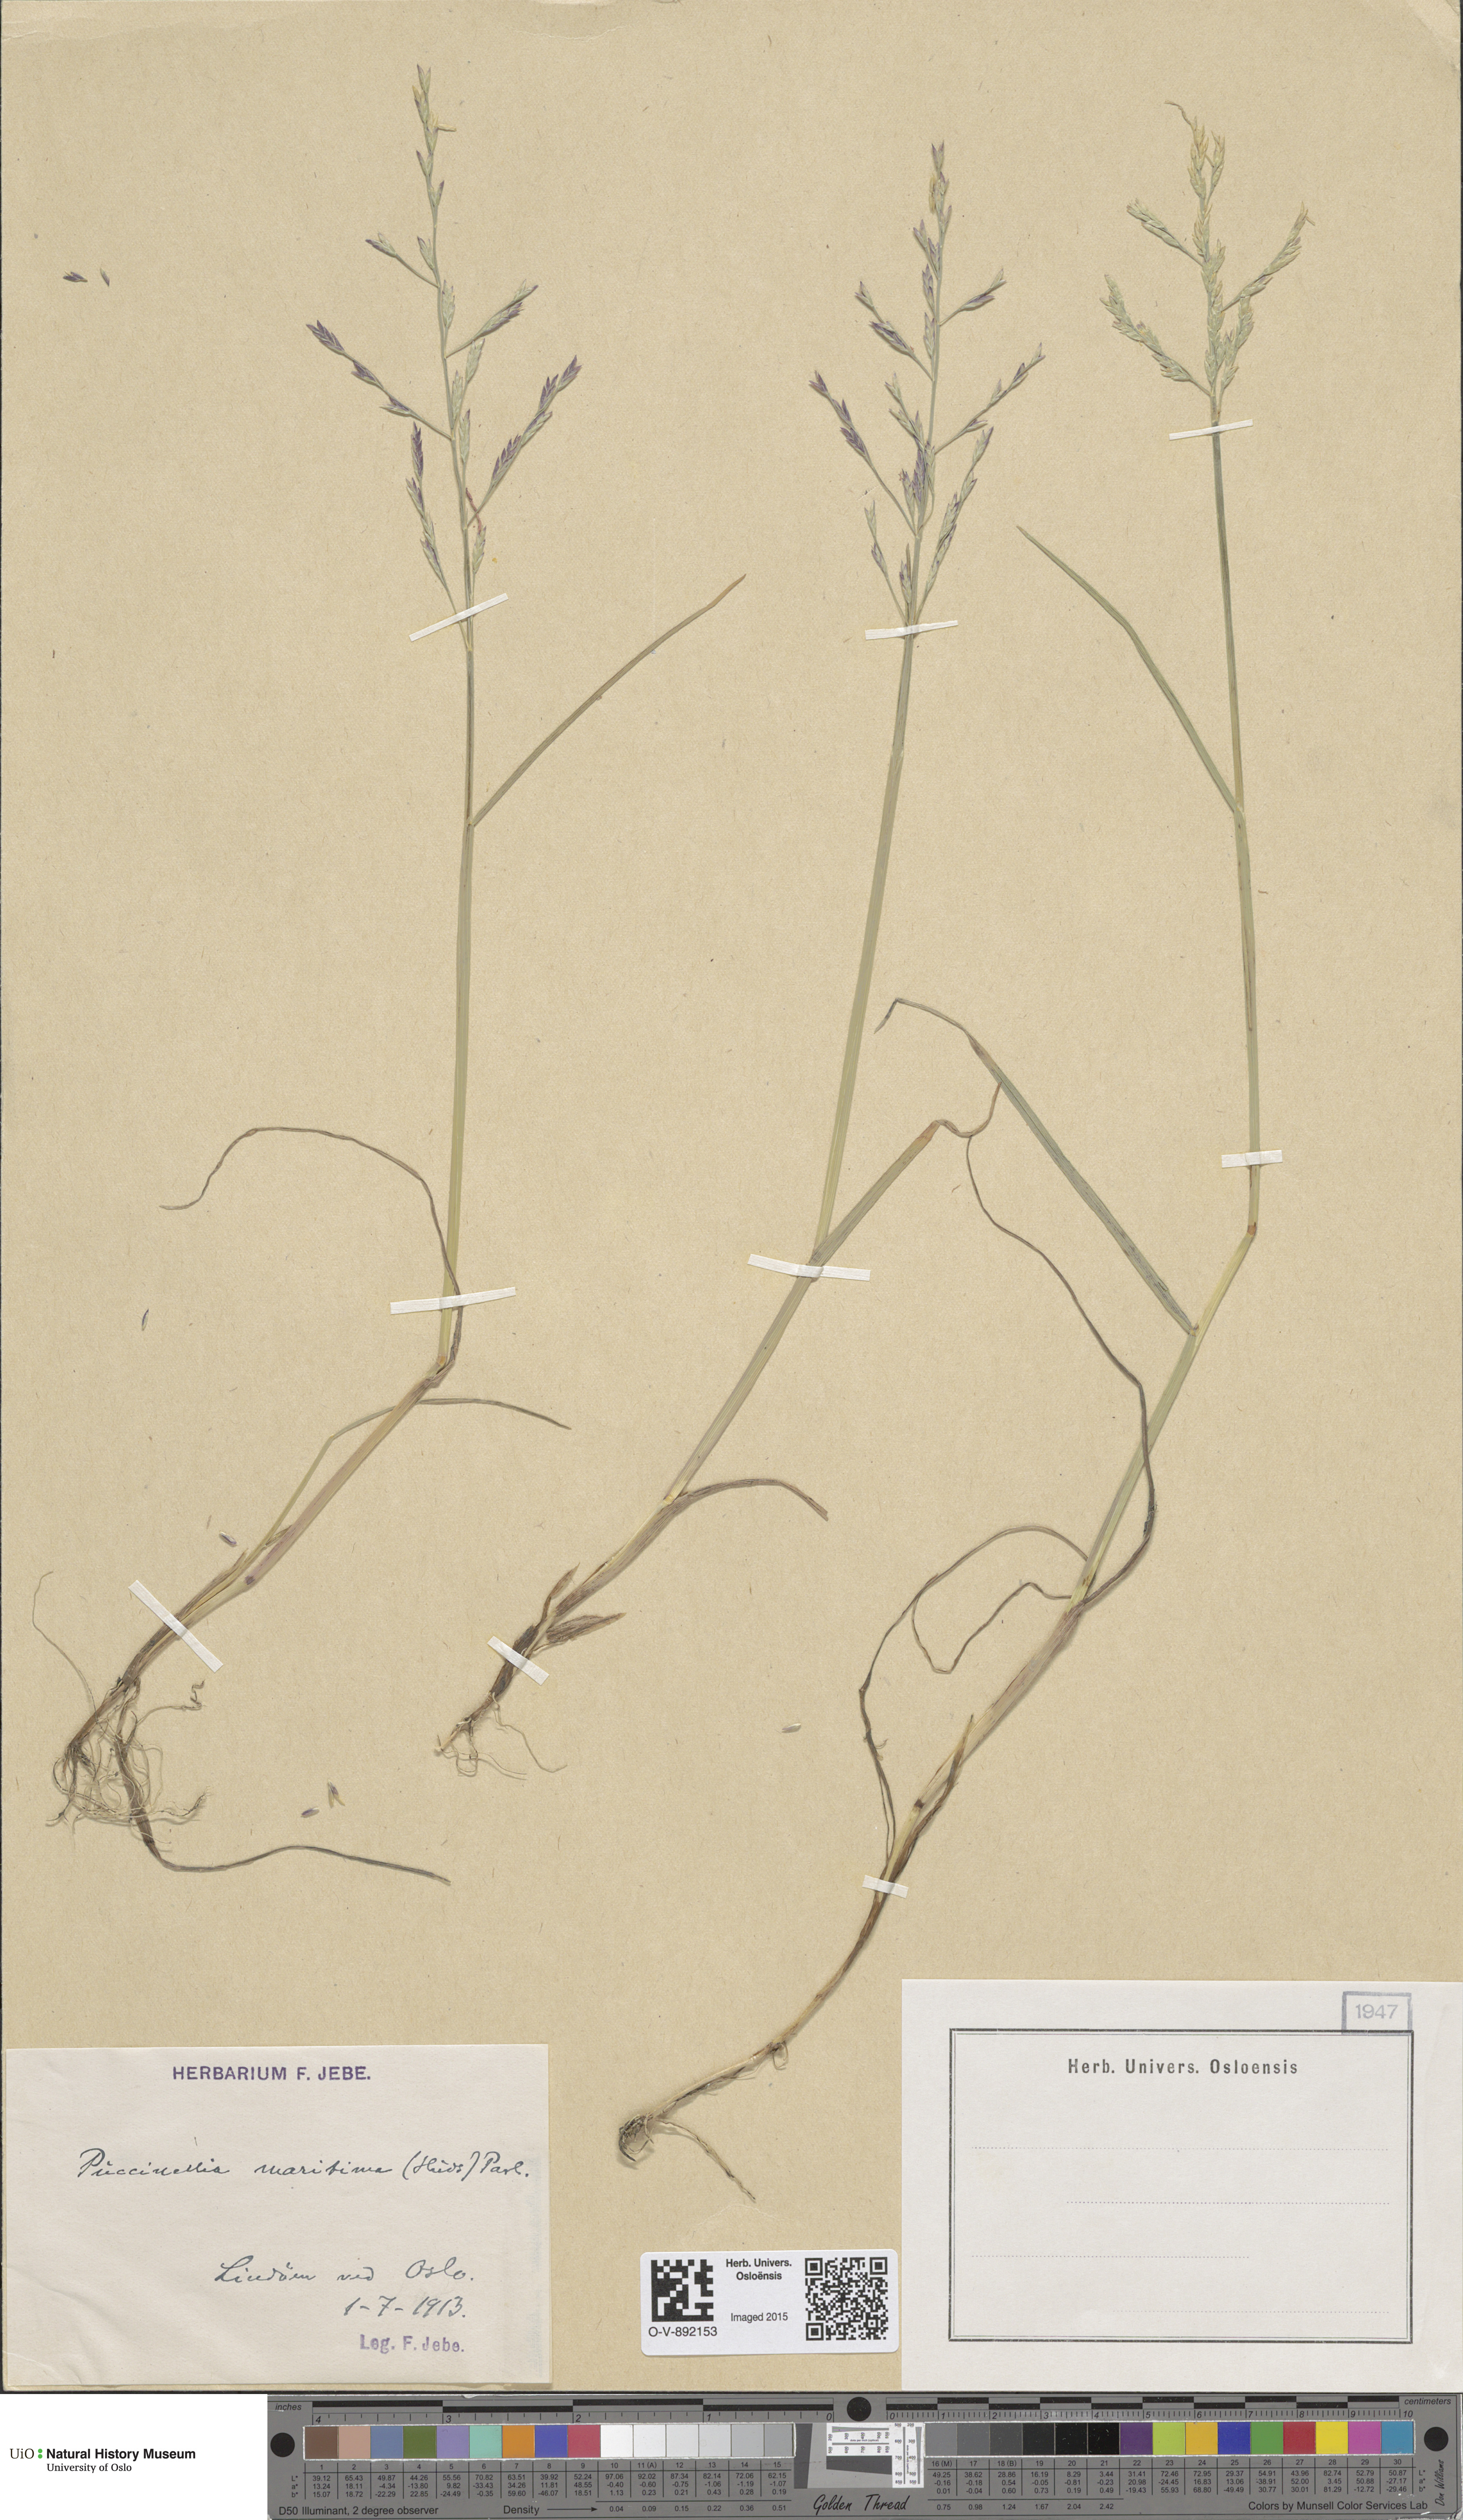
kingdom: Plantae
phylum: Tracheophyta
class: Liliopsida
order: Poales
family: Poaceae
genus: Puccinellia
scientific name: Puccinellia maritima
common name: Common saltmarsh grass
